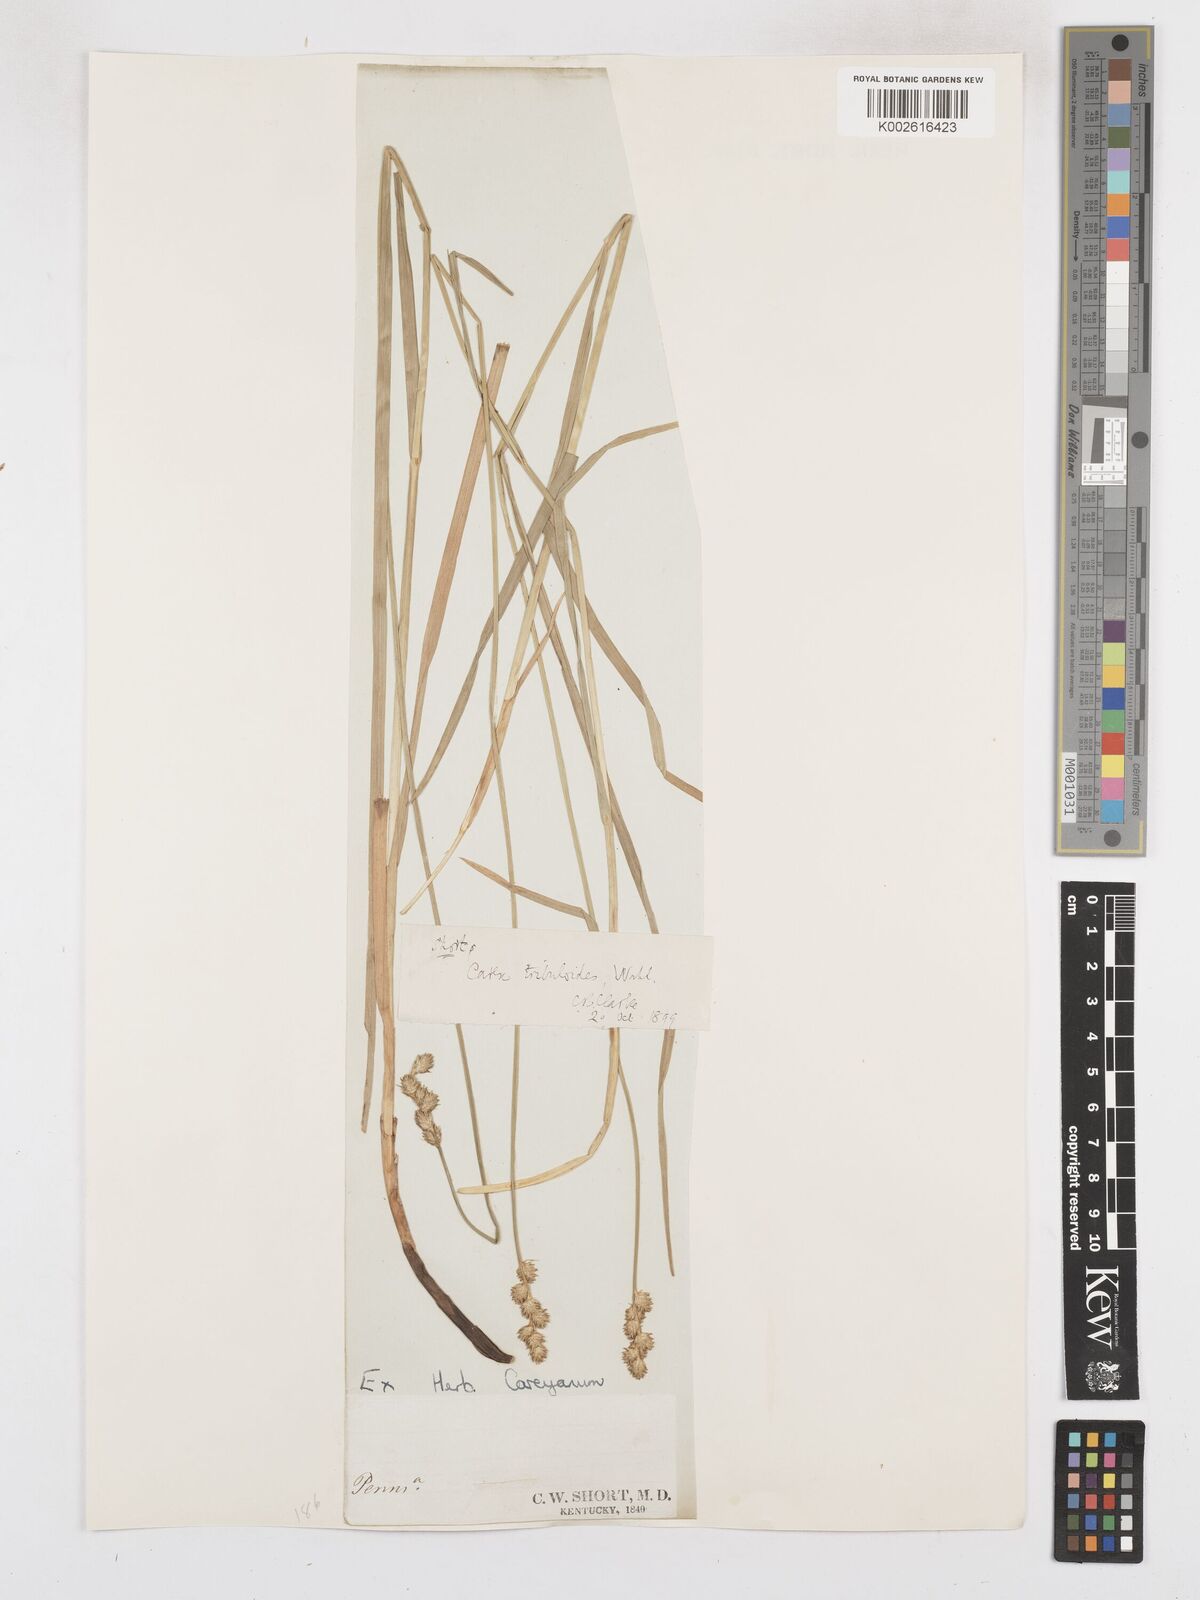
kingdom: Plantae
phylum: Tracheophyta
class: Liliopsida
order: Poales
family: Cyperaceae
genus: Carex
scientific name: Carex tribuloides
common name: Blunt broom sedge
